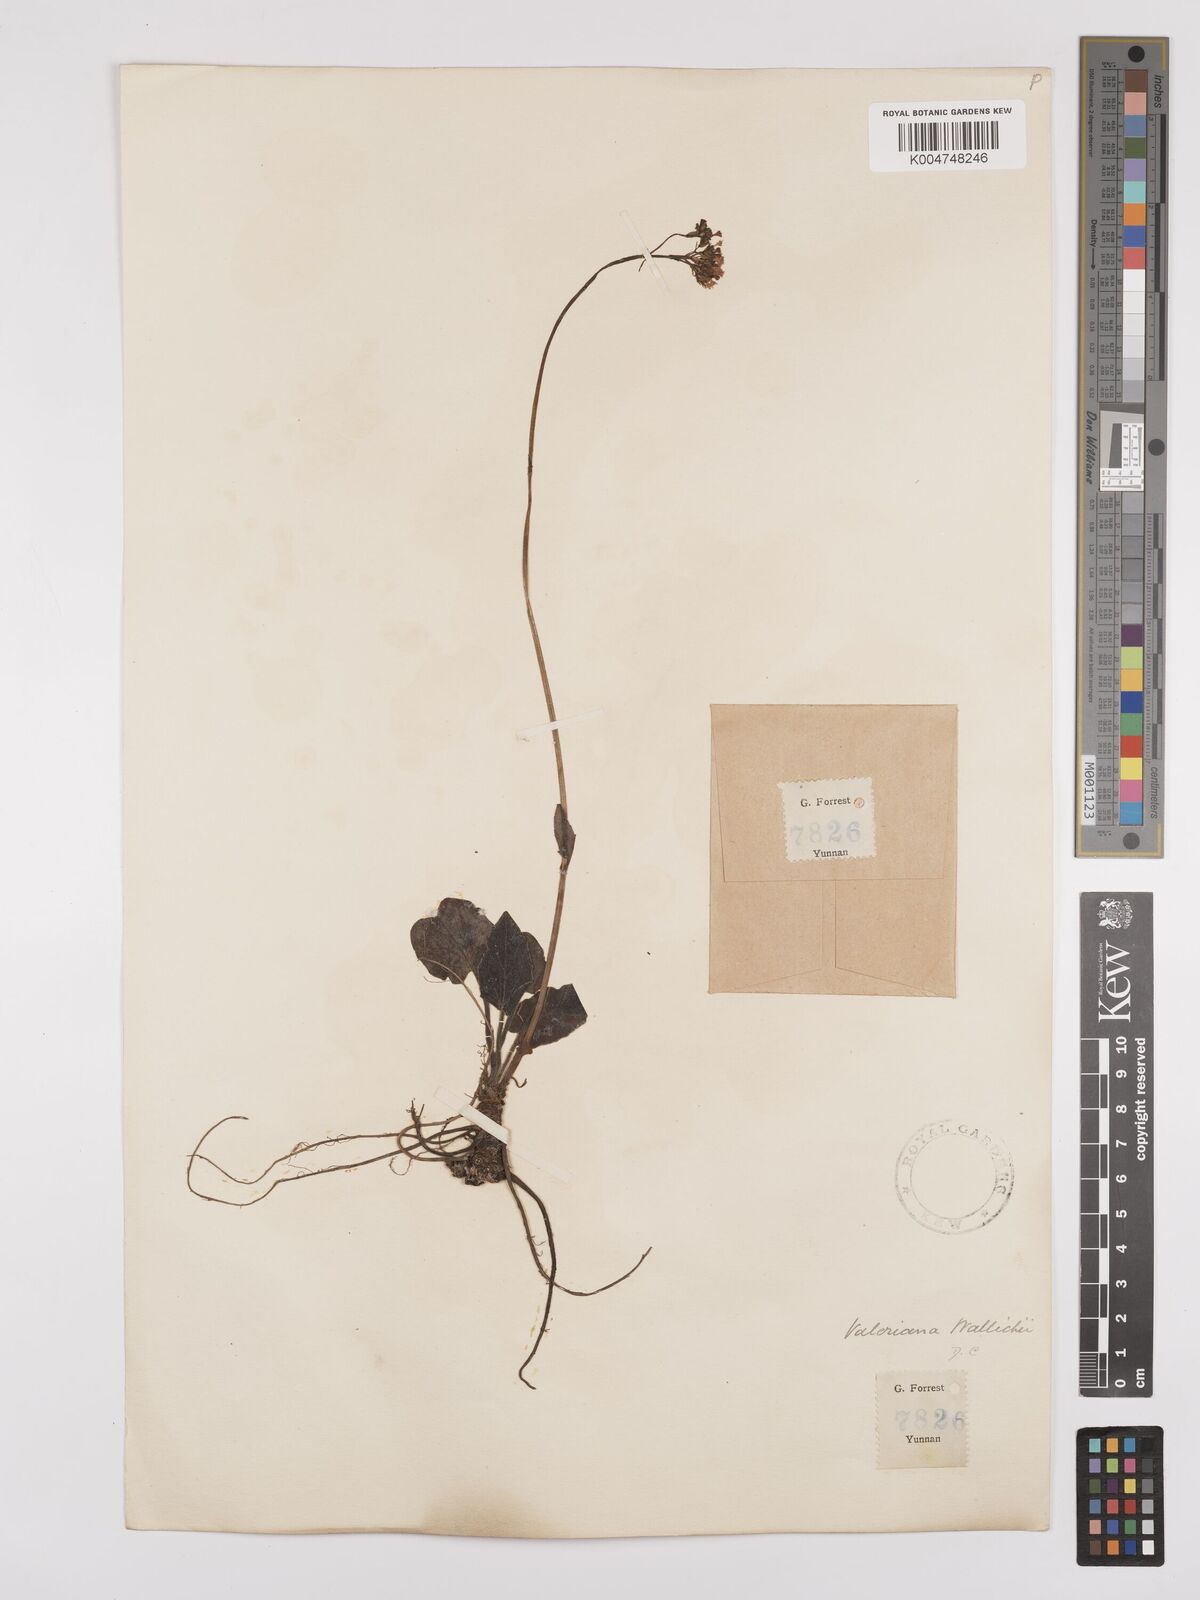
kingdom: Plantae
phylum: Tracheophyta
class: Magnoliopsida
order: Dipsacales
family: Caprifoliaceae
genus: Valeriana
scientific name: Valeriana
